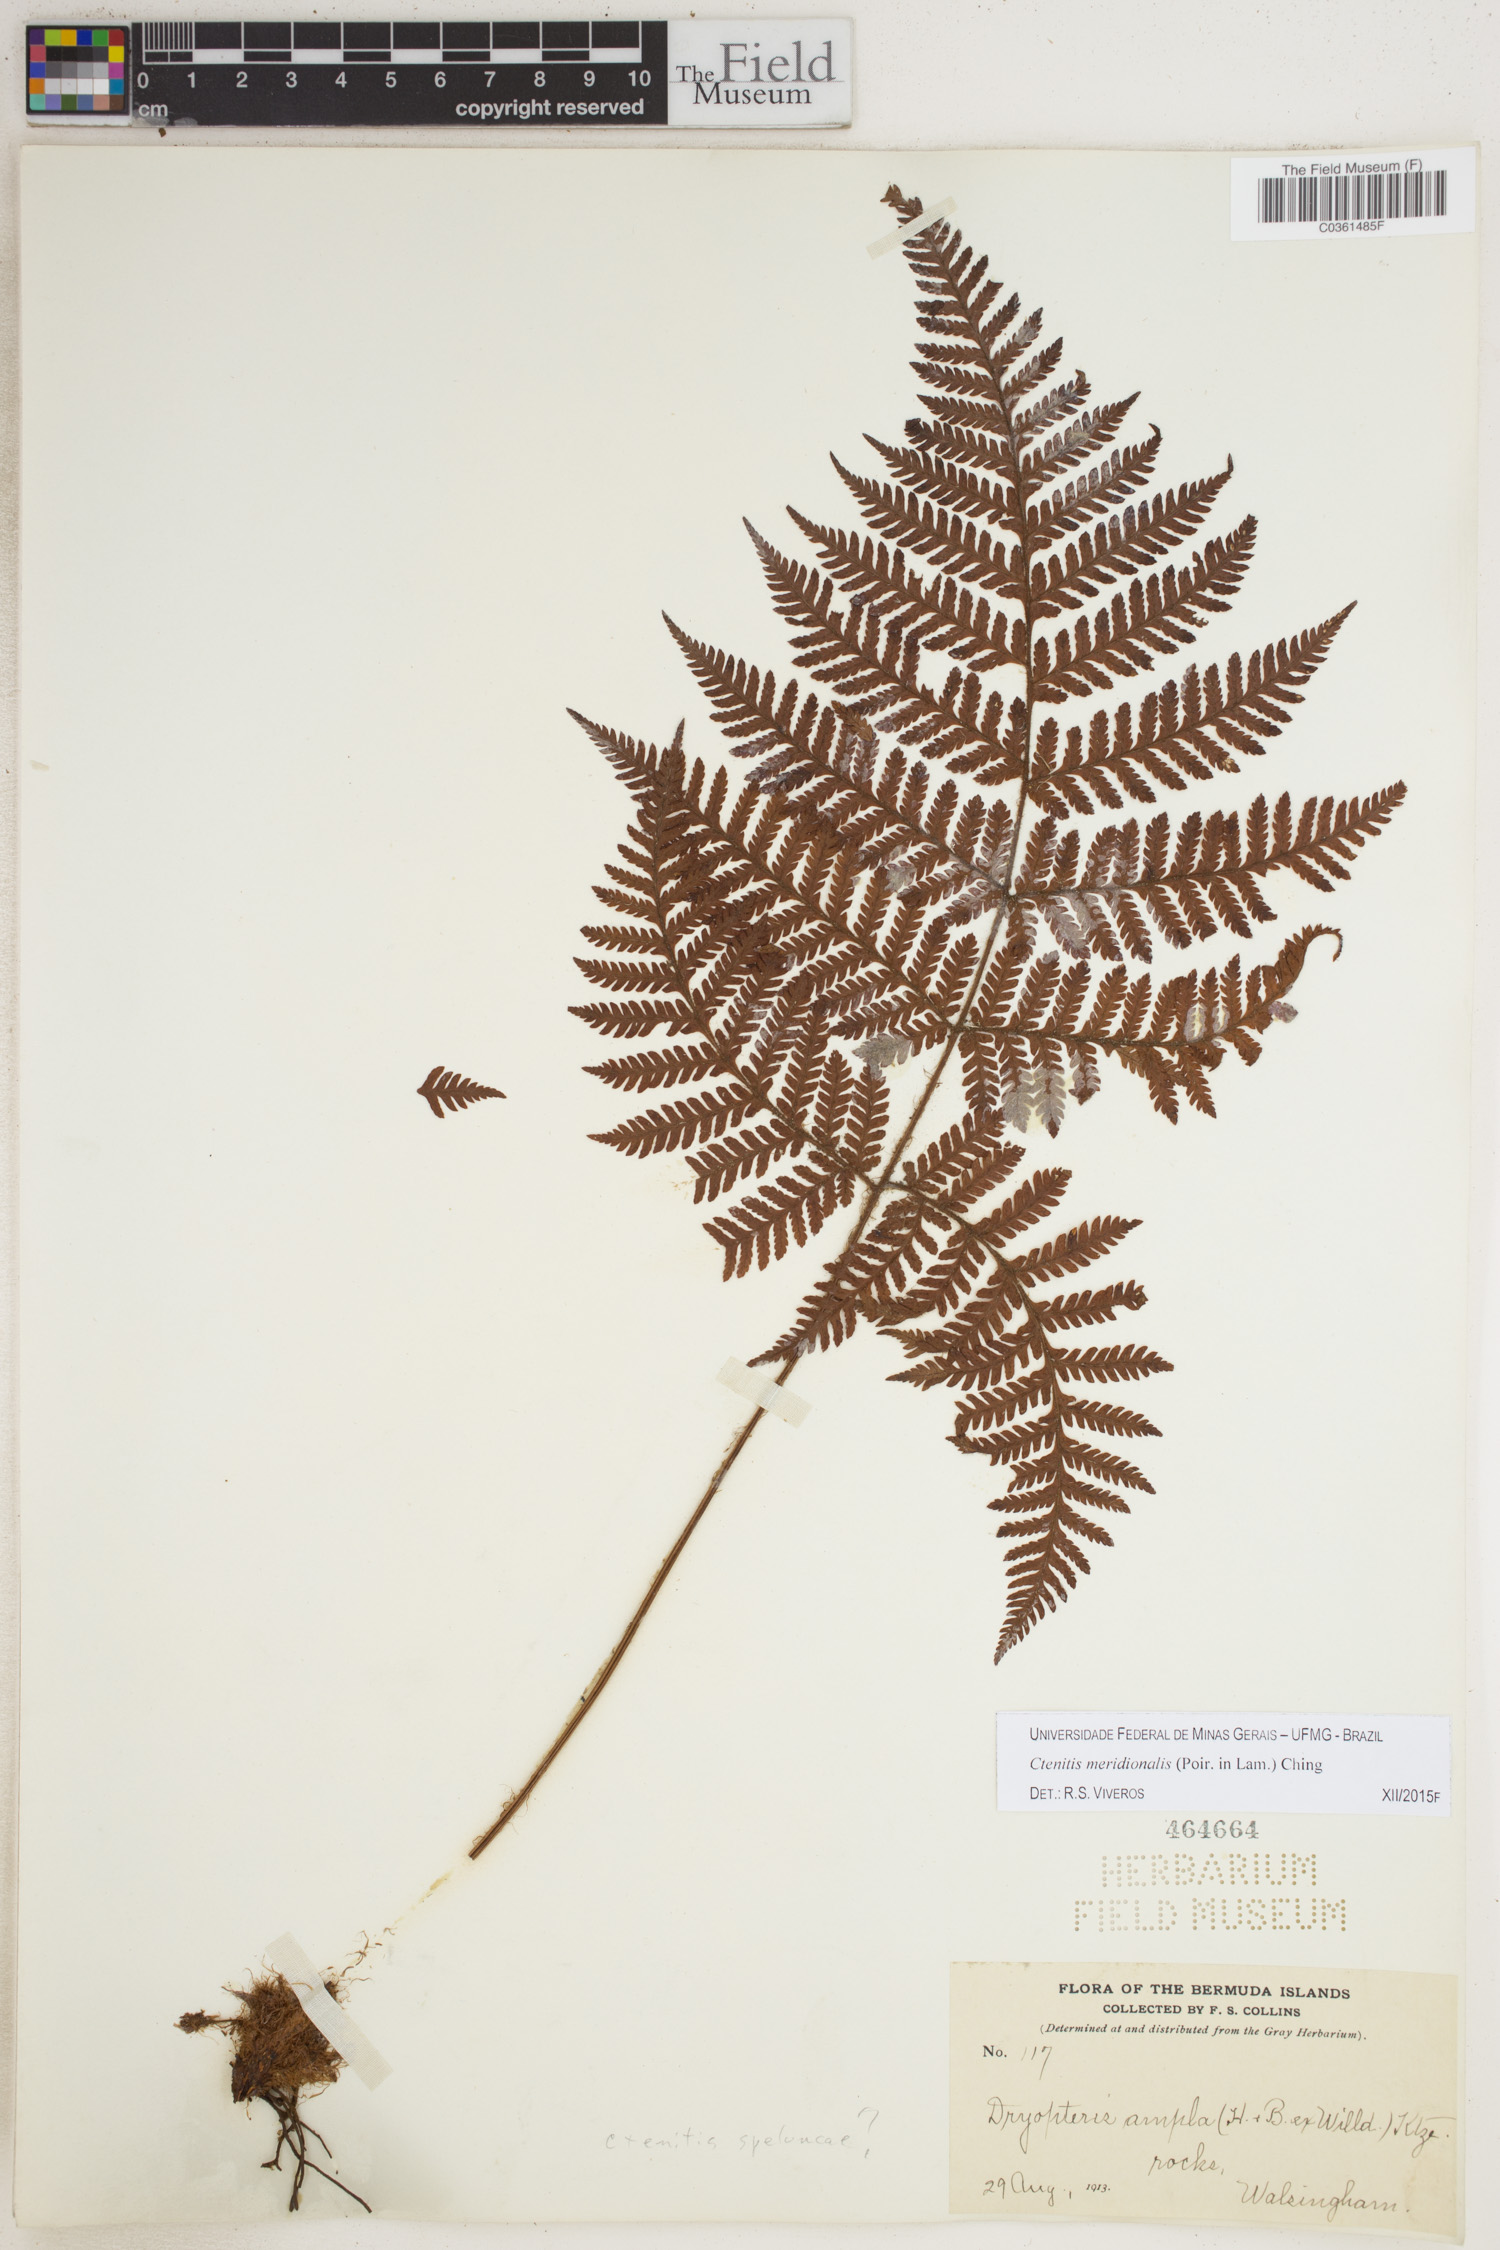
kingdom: Plantae
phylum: Tracheophyta
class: Polypodiopsida
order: Polypodiales
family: Dryopteridaceae
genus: Ctenitis
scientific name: Ctenitis meridionalis
